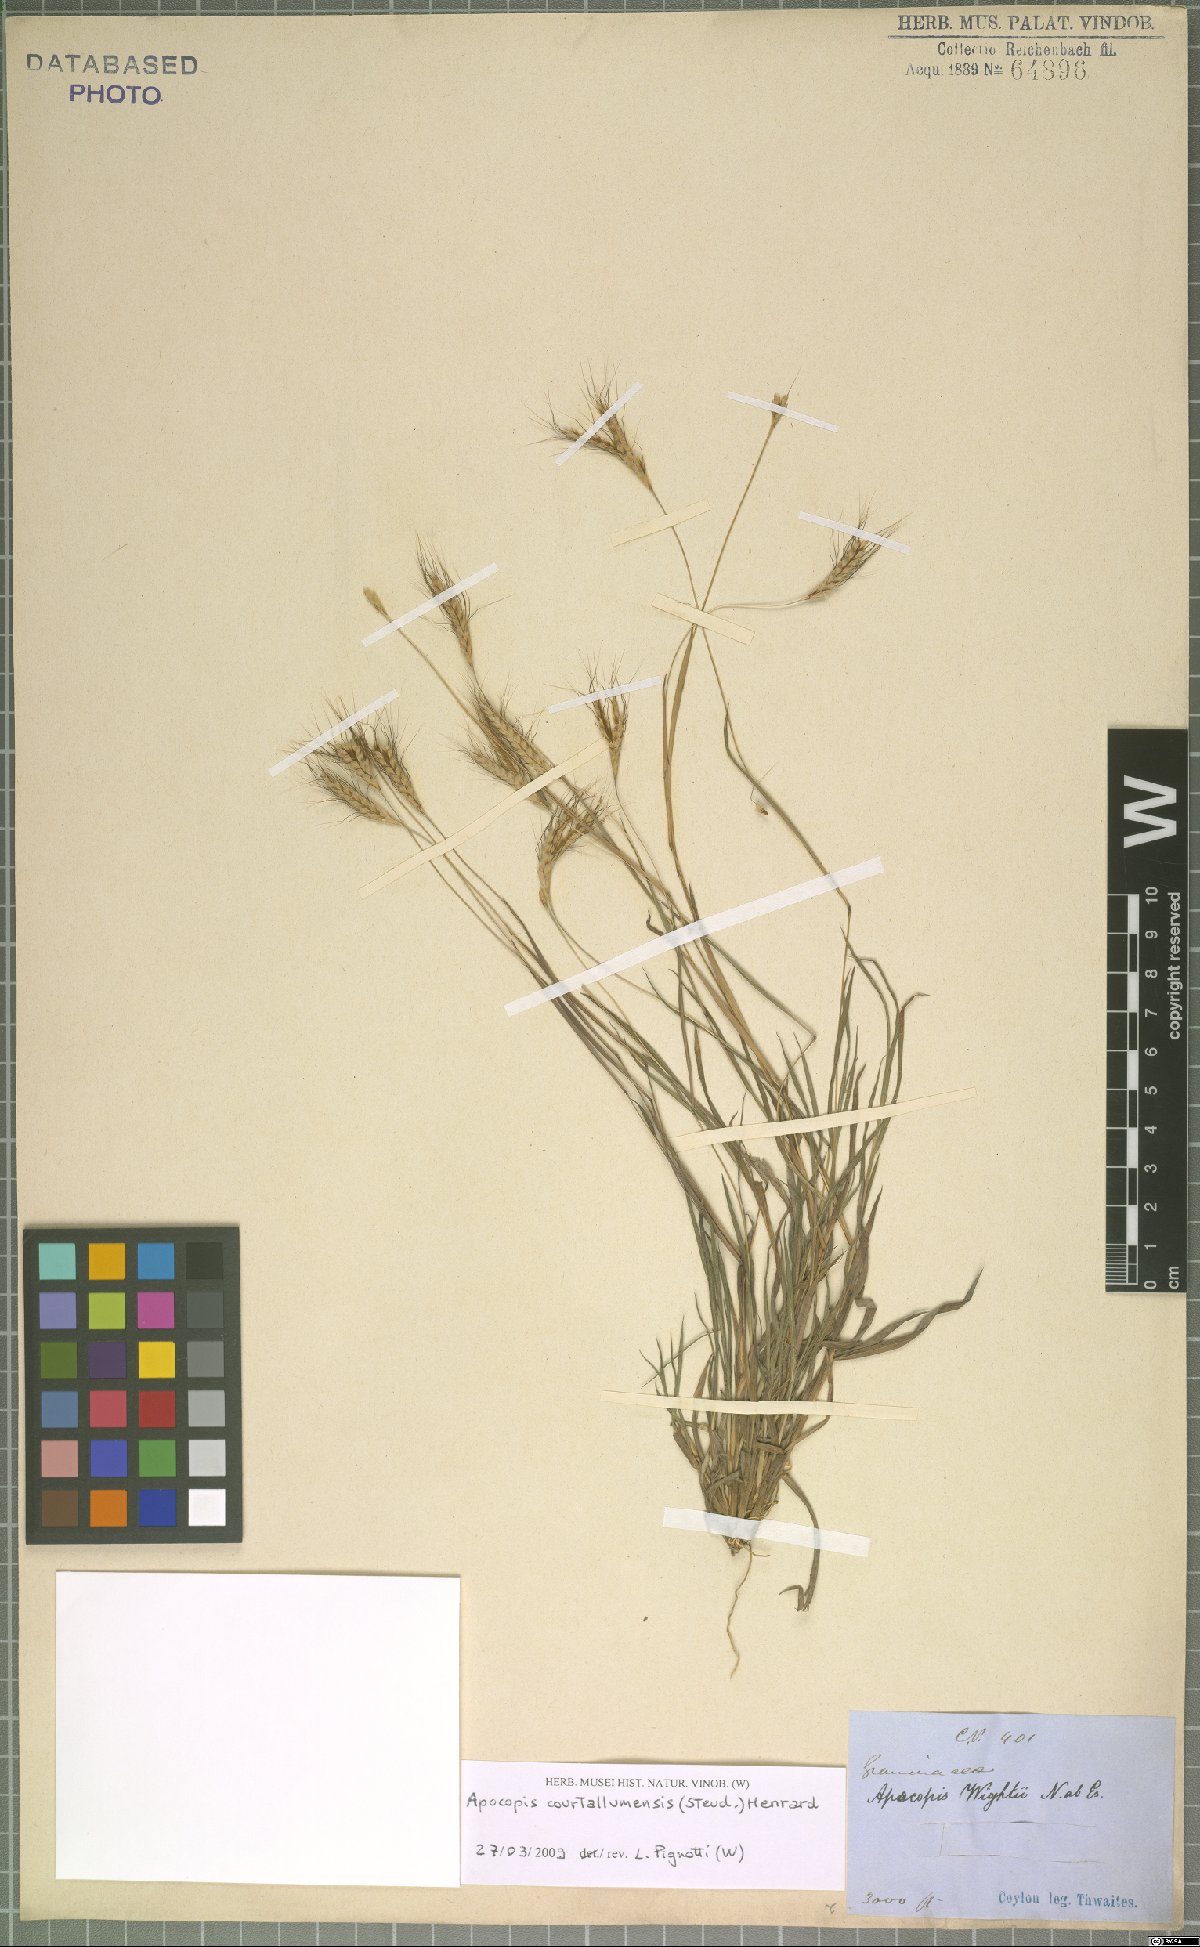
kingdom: Plantae
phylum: Tracheophyta
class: Liliopsida
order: Poales
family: Poaceae
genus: Apocopis
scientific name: Apocopis courtallumensis
